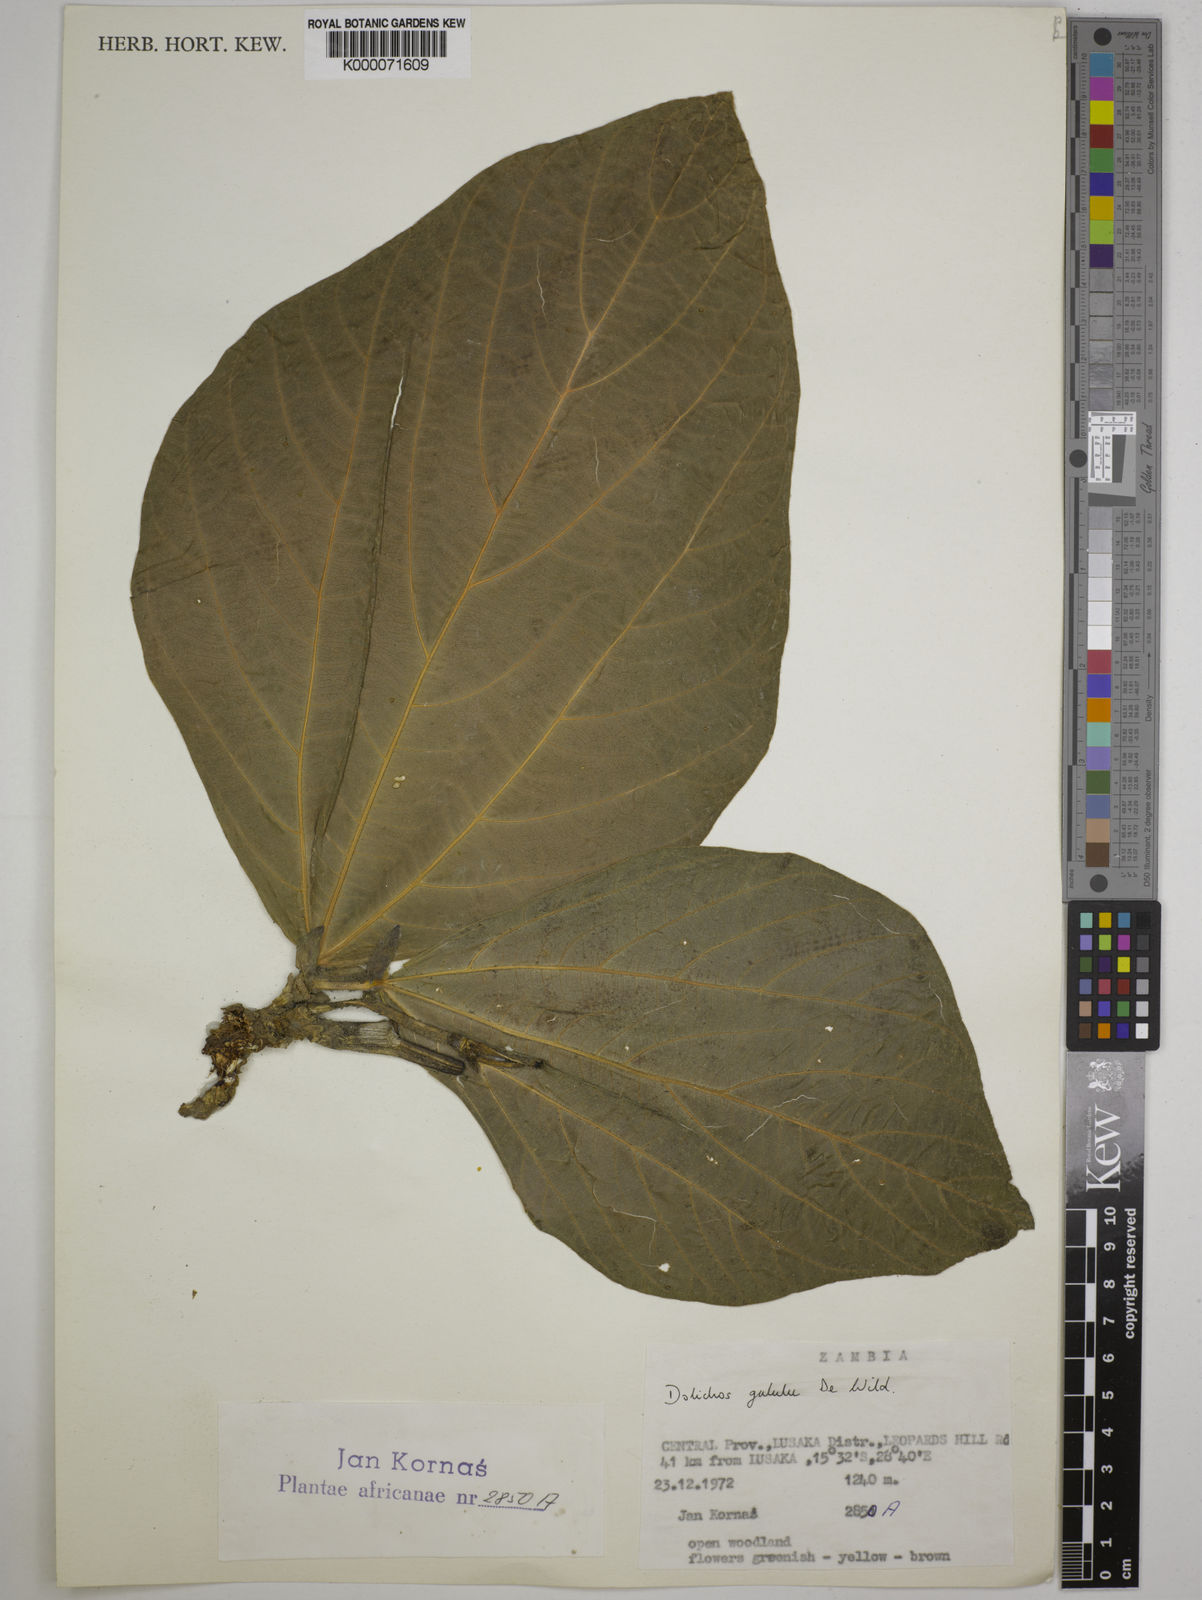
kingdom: Plantae
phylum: Tracheophyta
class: Magnoliopsida
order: Fabales
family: Fabaceae
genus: Dolichos
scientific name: Dolichos gululu
